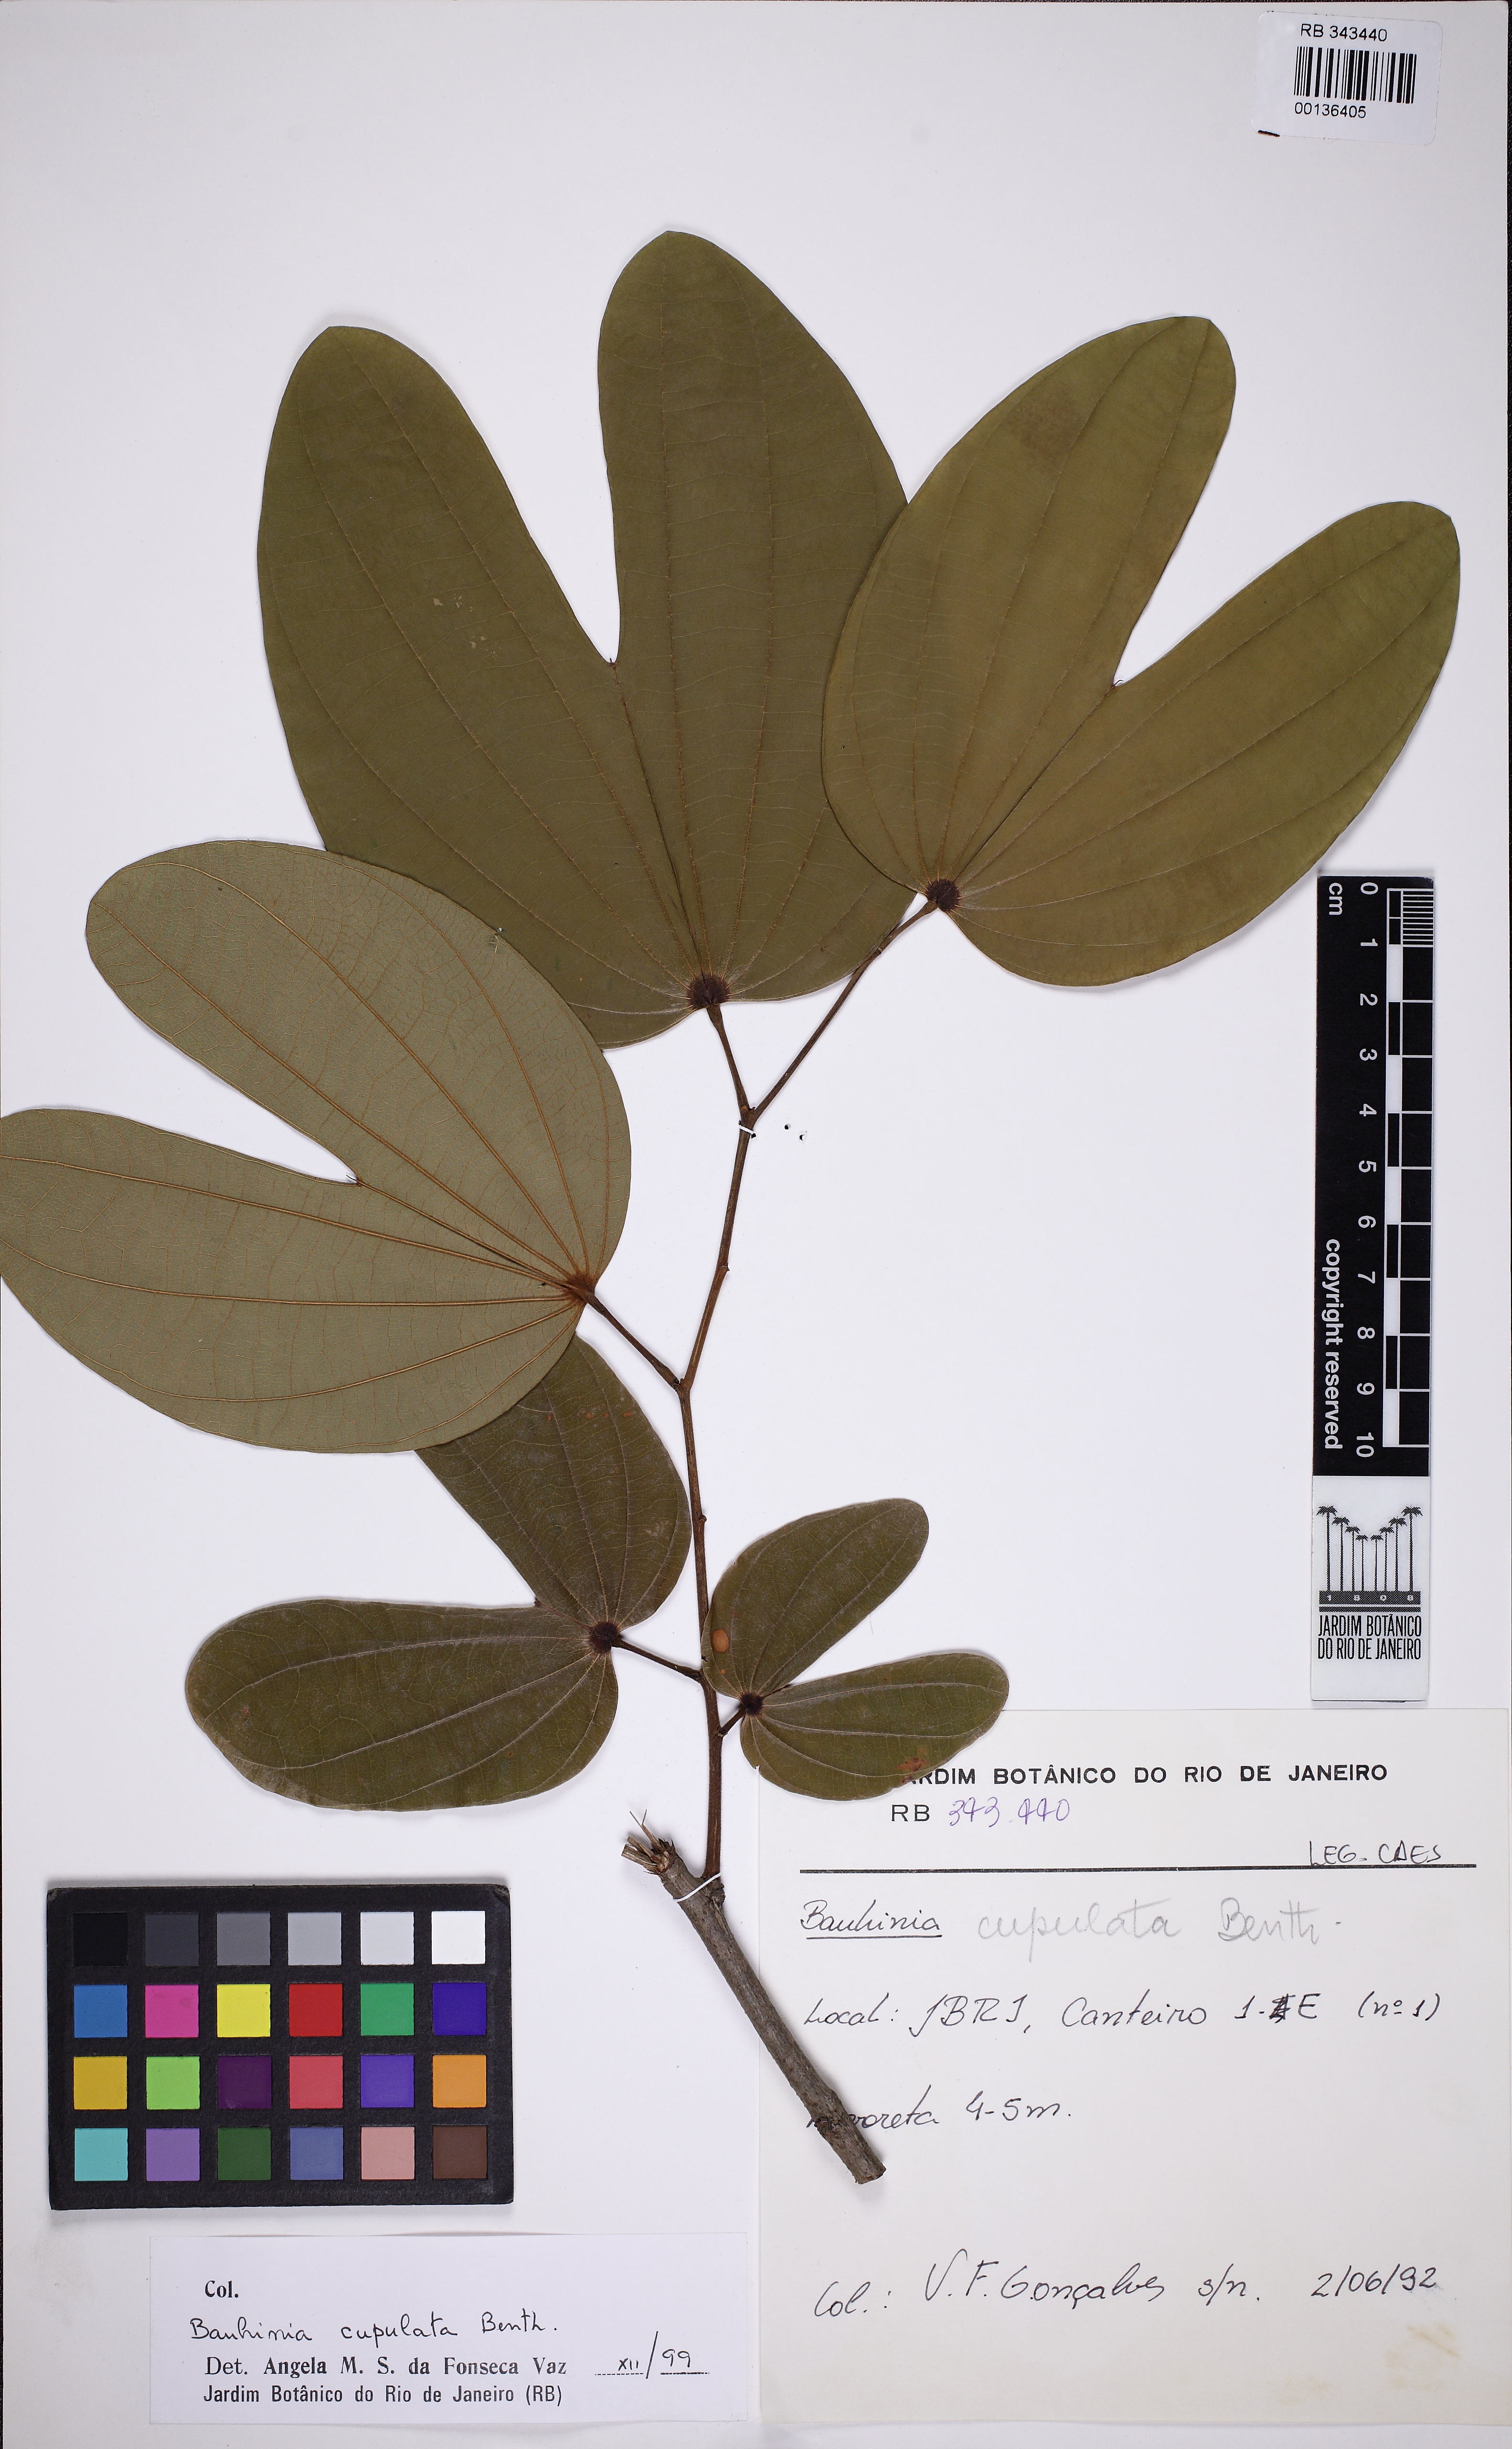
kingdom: Plantae
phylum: Tracheophyta
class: Magnoliopsida
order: Fabales
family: Fabaceae
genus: Bauhinia
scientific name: Bauhinia cupulata
